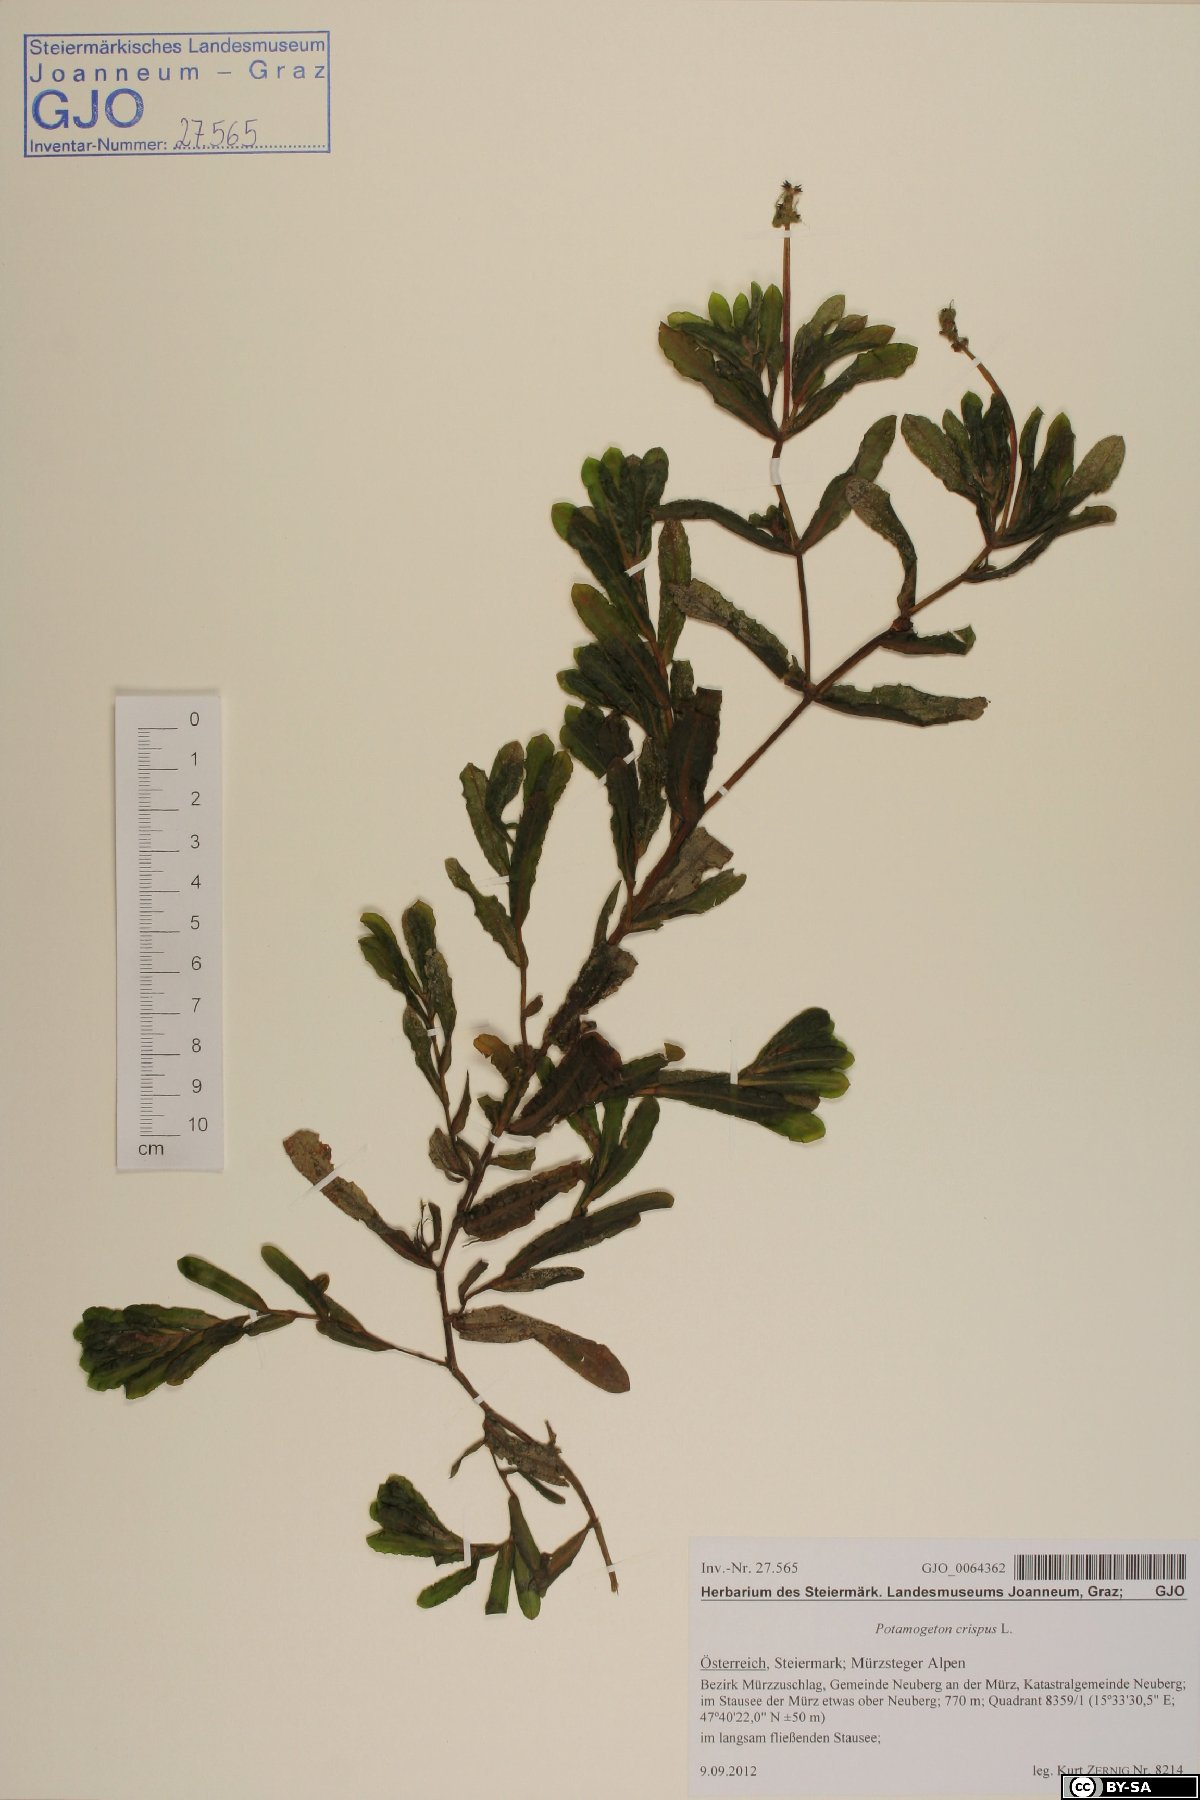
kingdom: Plantae
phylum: Tracheophyta
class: Liliopsida
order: Alismatales
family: Potamogetonaceae
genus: Potamogeton
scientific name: Potamogeton crispus
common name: Curled pondweed
